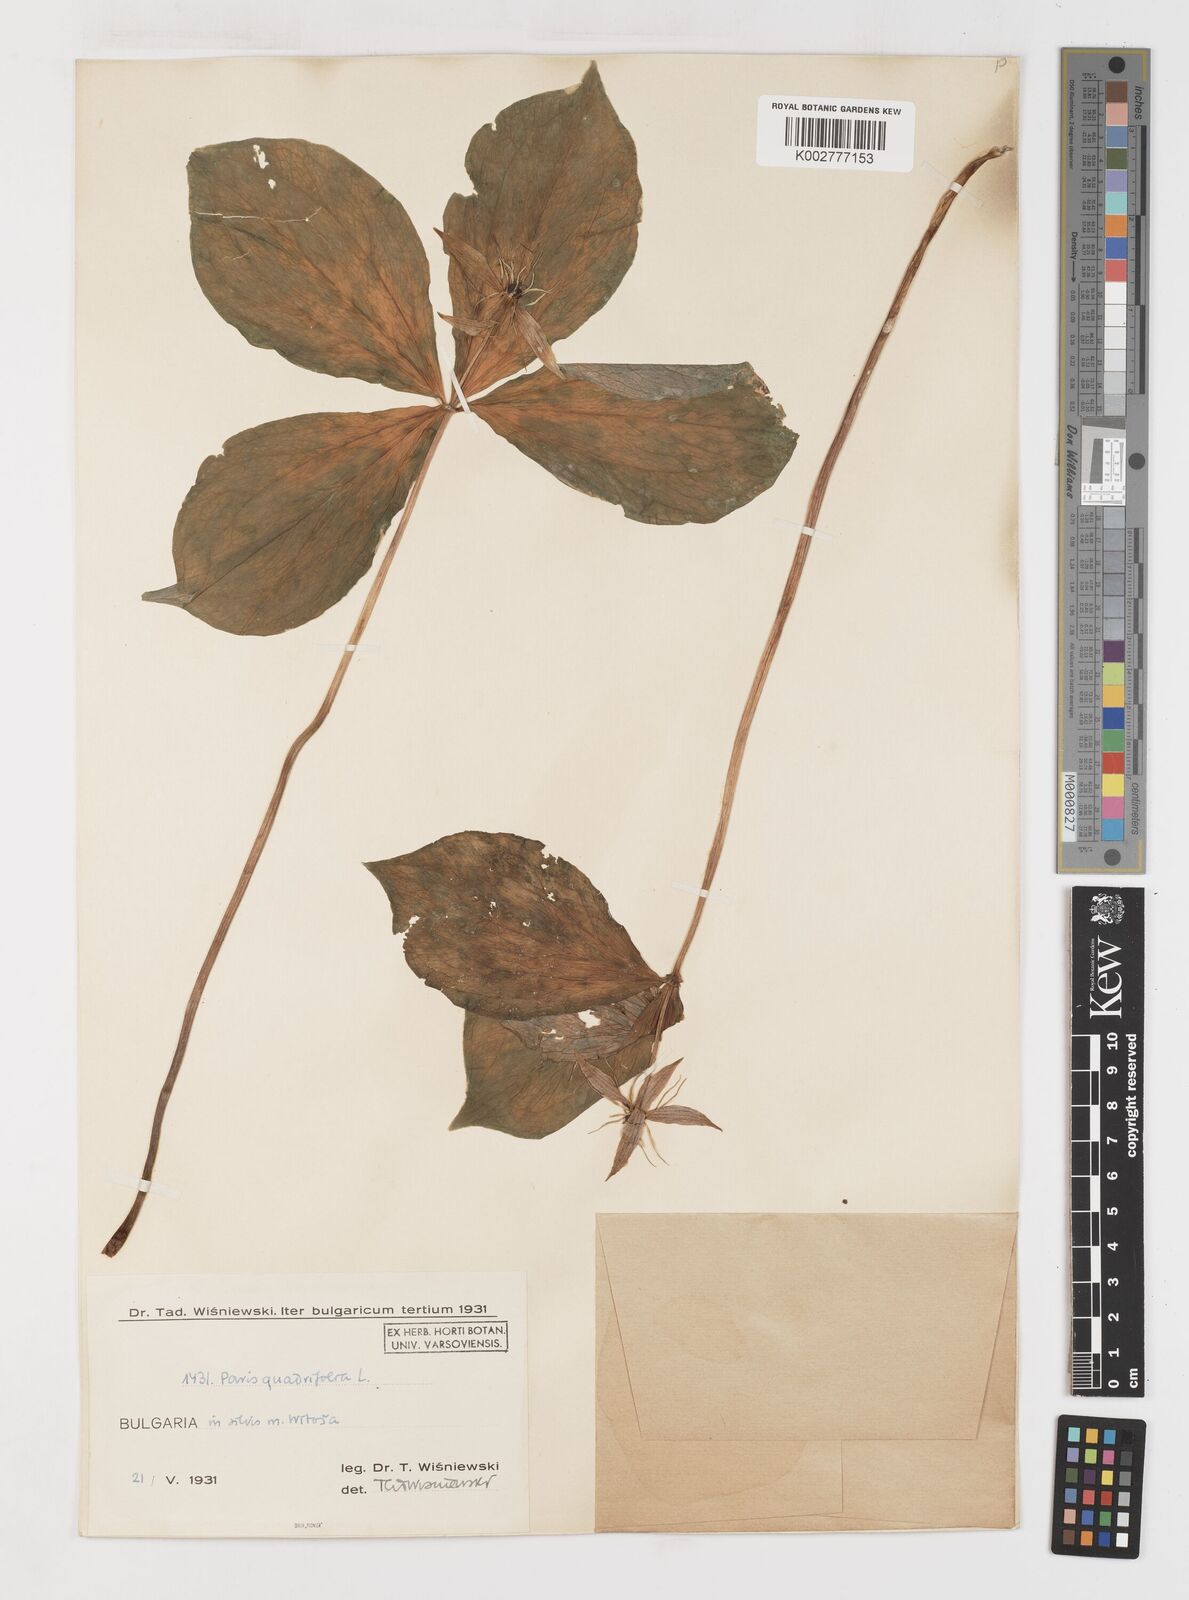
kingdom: Plantae
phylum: Tracheophyta
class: Liliopsida
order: Liliales
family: Melanthiaceae
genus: Paris
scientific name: Paris quadrifolia
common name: Herb-paris
